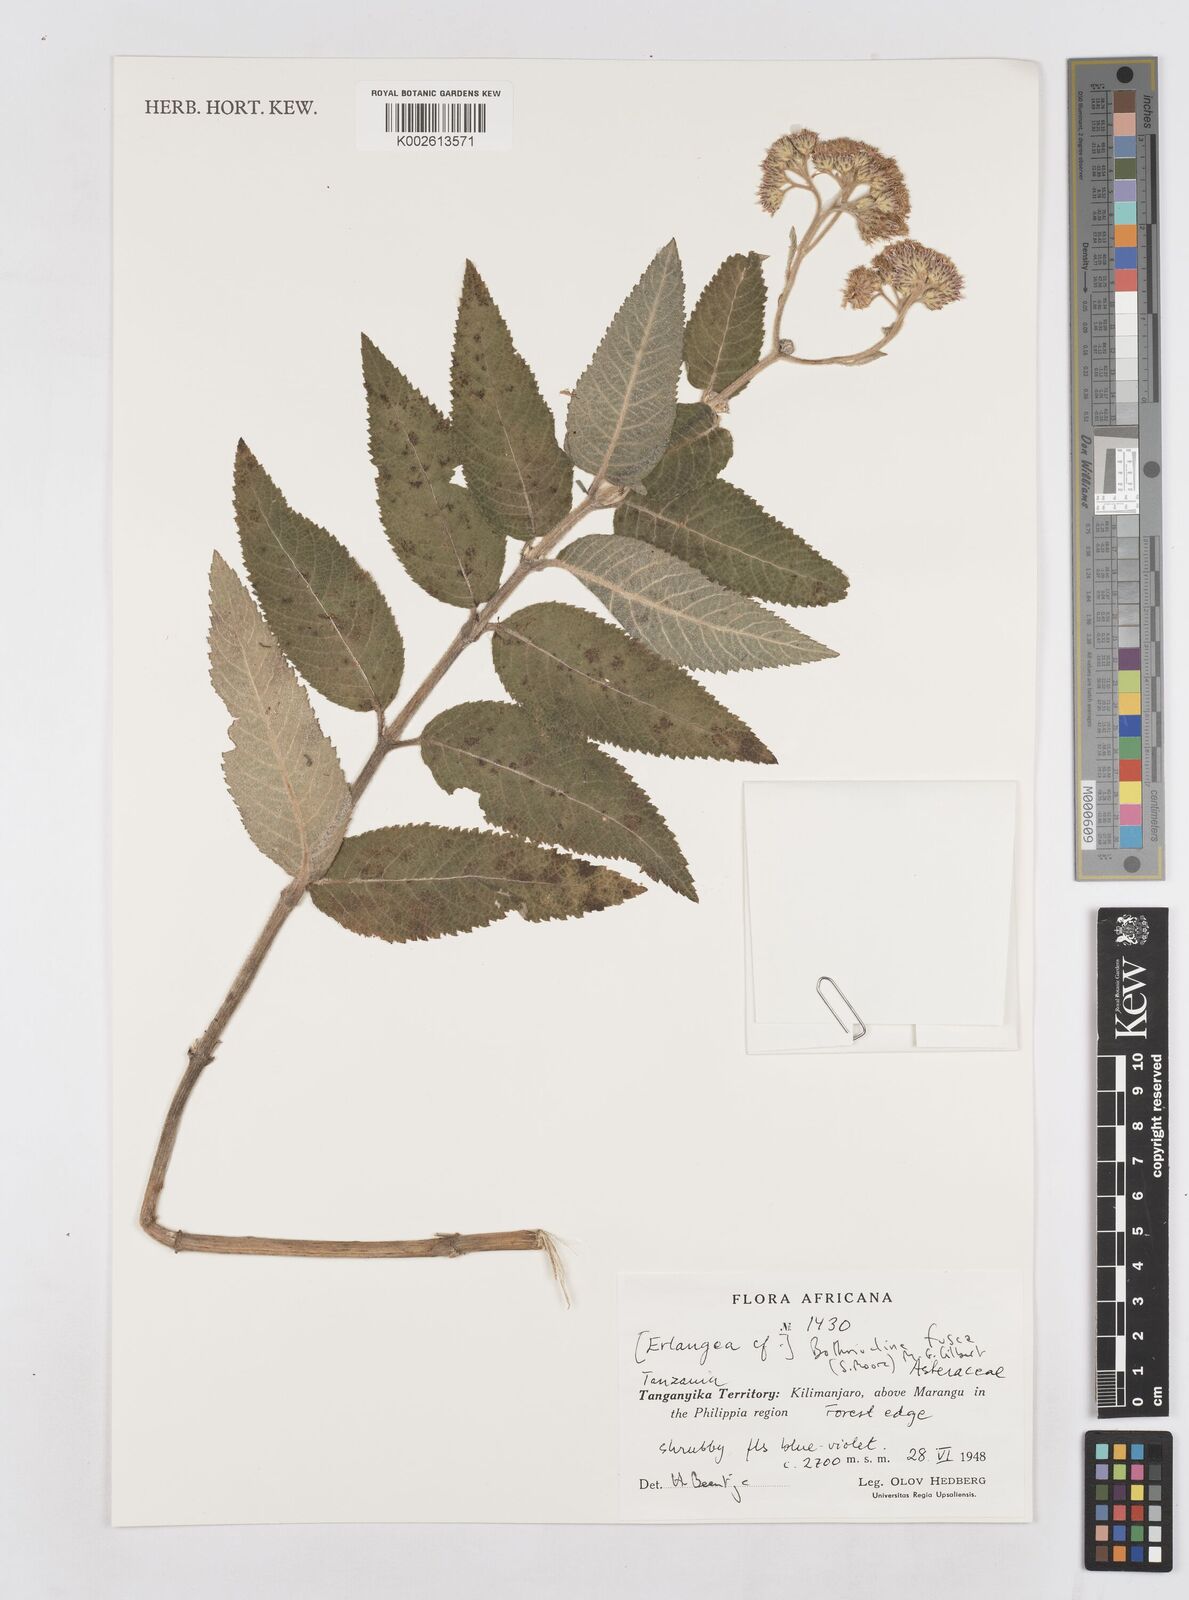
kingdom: Plantae
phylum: Tracheophyta
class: Magnoliopsida
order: Asterales
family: Asteraceae
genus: Bothriocline
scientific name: Bothriocline fusca
